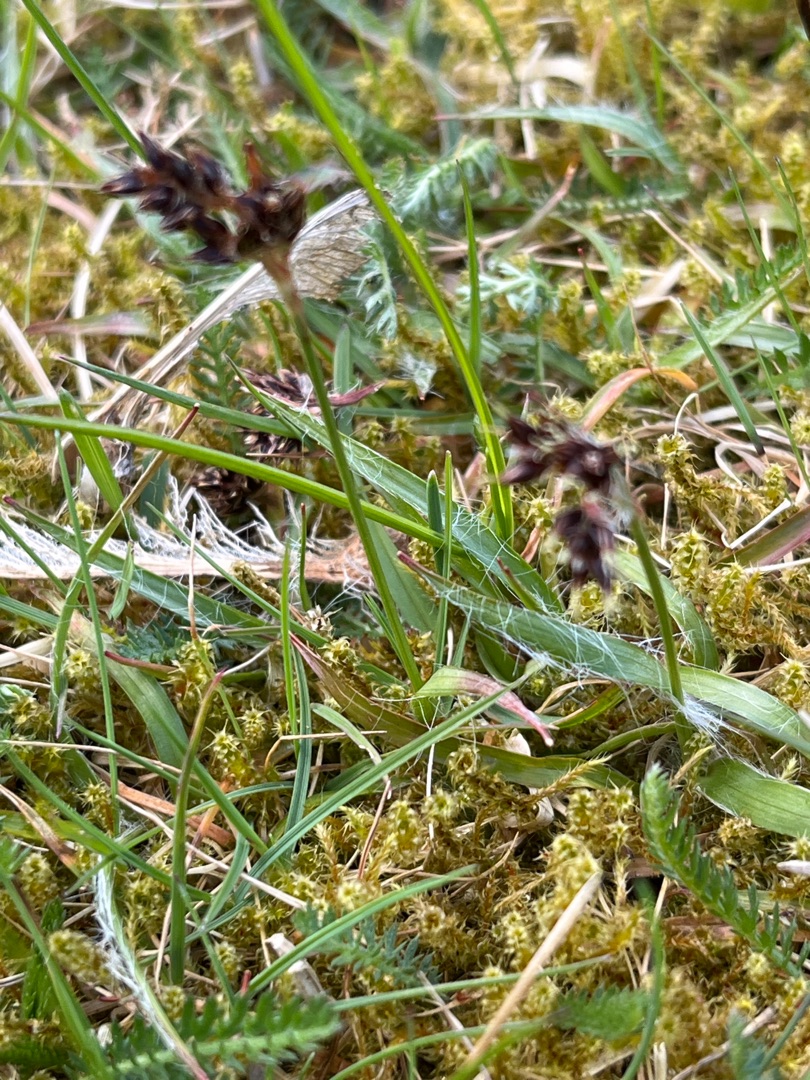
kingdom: Plantae
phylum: Tracheophyta
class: Liliopsida
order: Poales
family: Juncaceae
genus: Luzula
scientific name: Luzula campestris
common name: Mark-frytle
